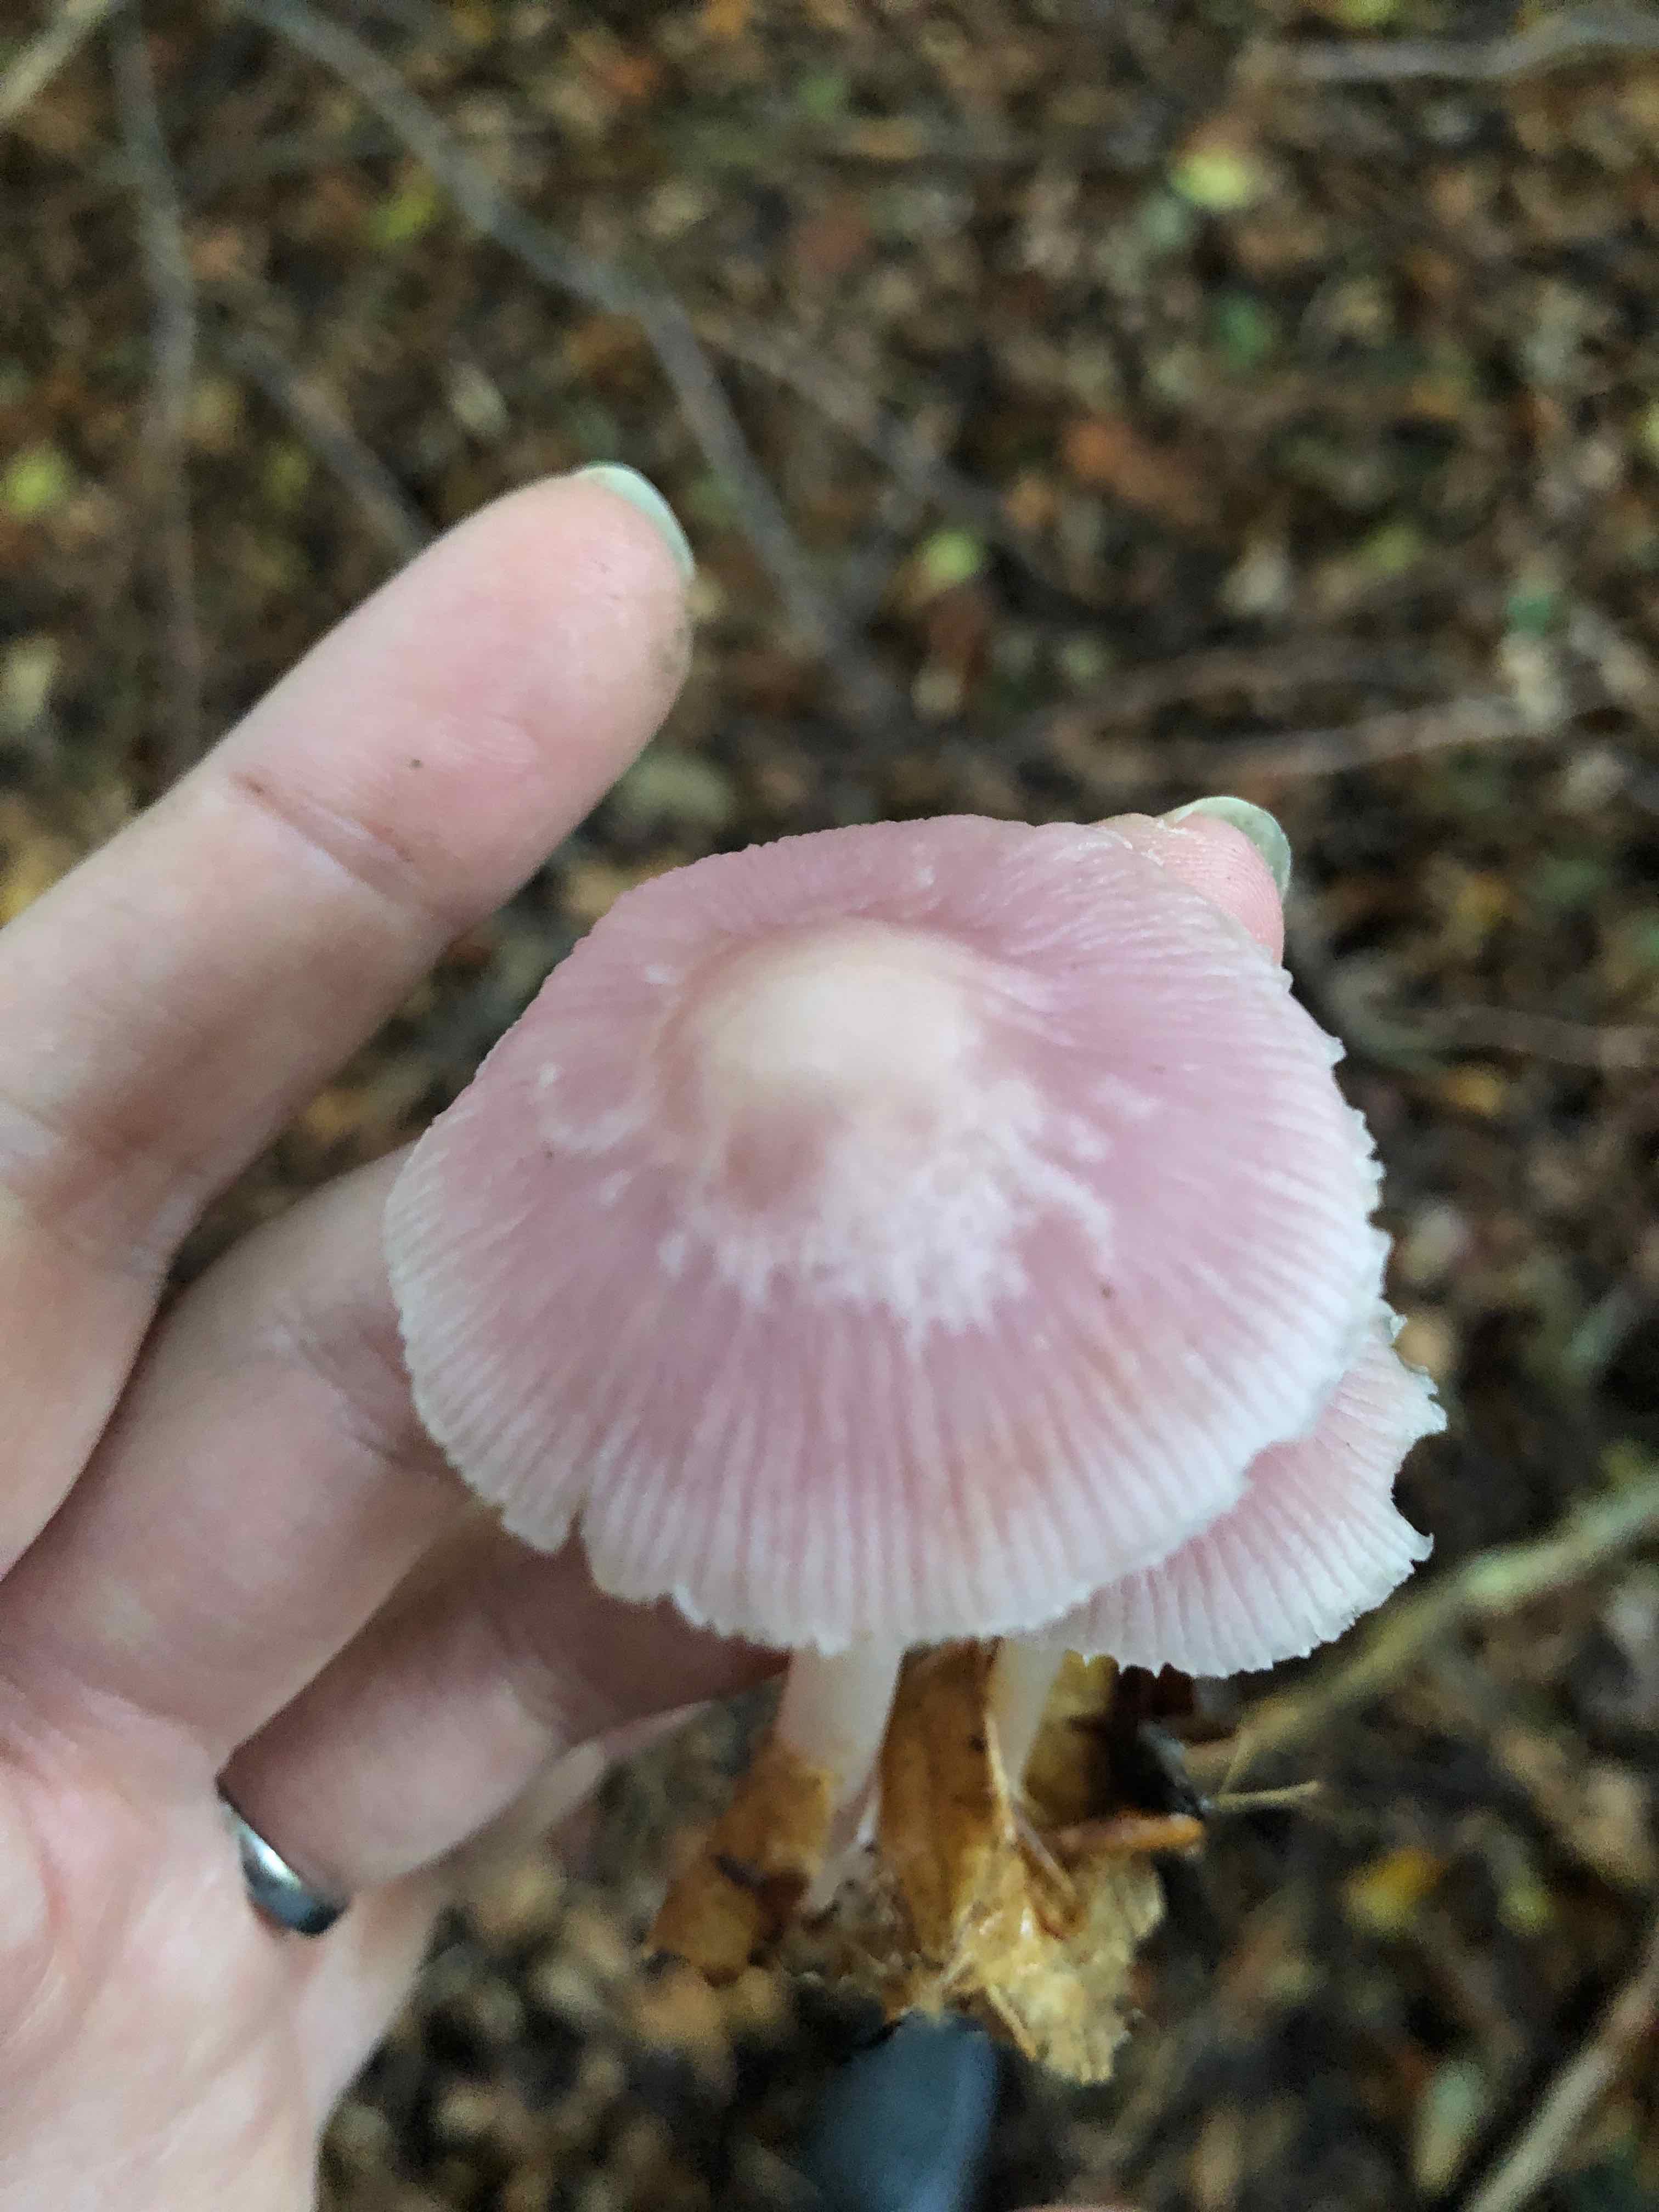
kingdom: Fungi
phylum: Basidiomycota
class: Agaricomycetes
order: Agaricales
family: Mycenaceae
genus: Mycena
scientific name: Mycena rosea
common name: rosa huesvamp
